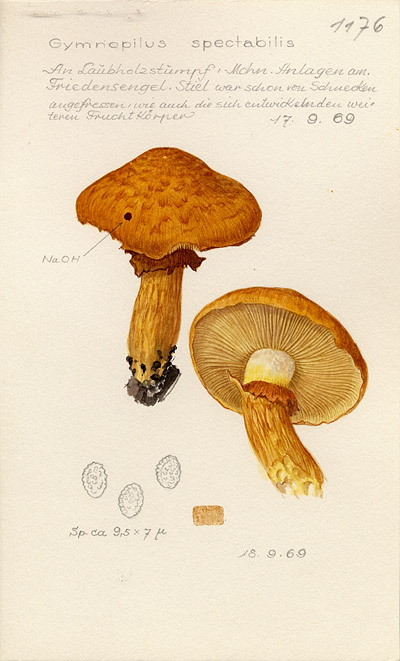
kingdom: Fungi
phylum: Basidiomycota
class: Agaricomycetes
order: Agaricales
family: Hymenogastraceae
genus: Gymnopilus
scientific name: Gymnopilus spectabilis
